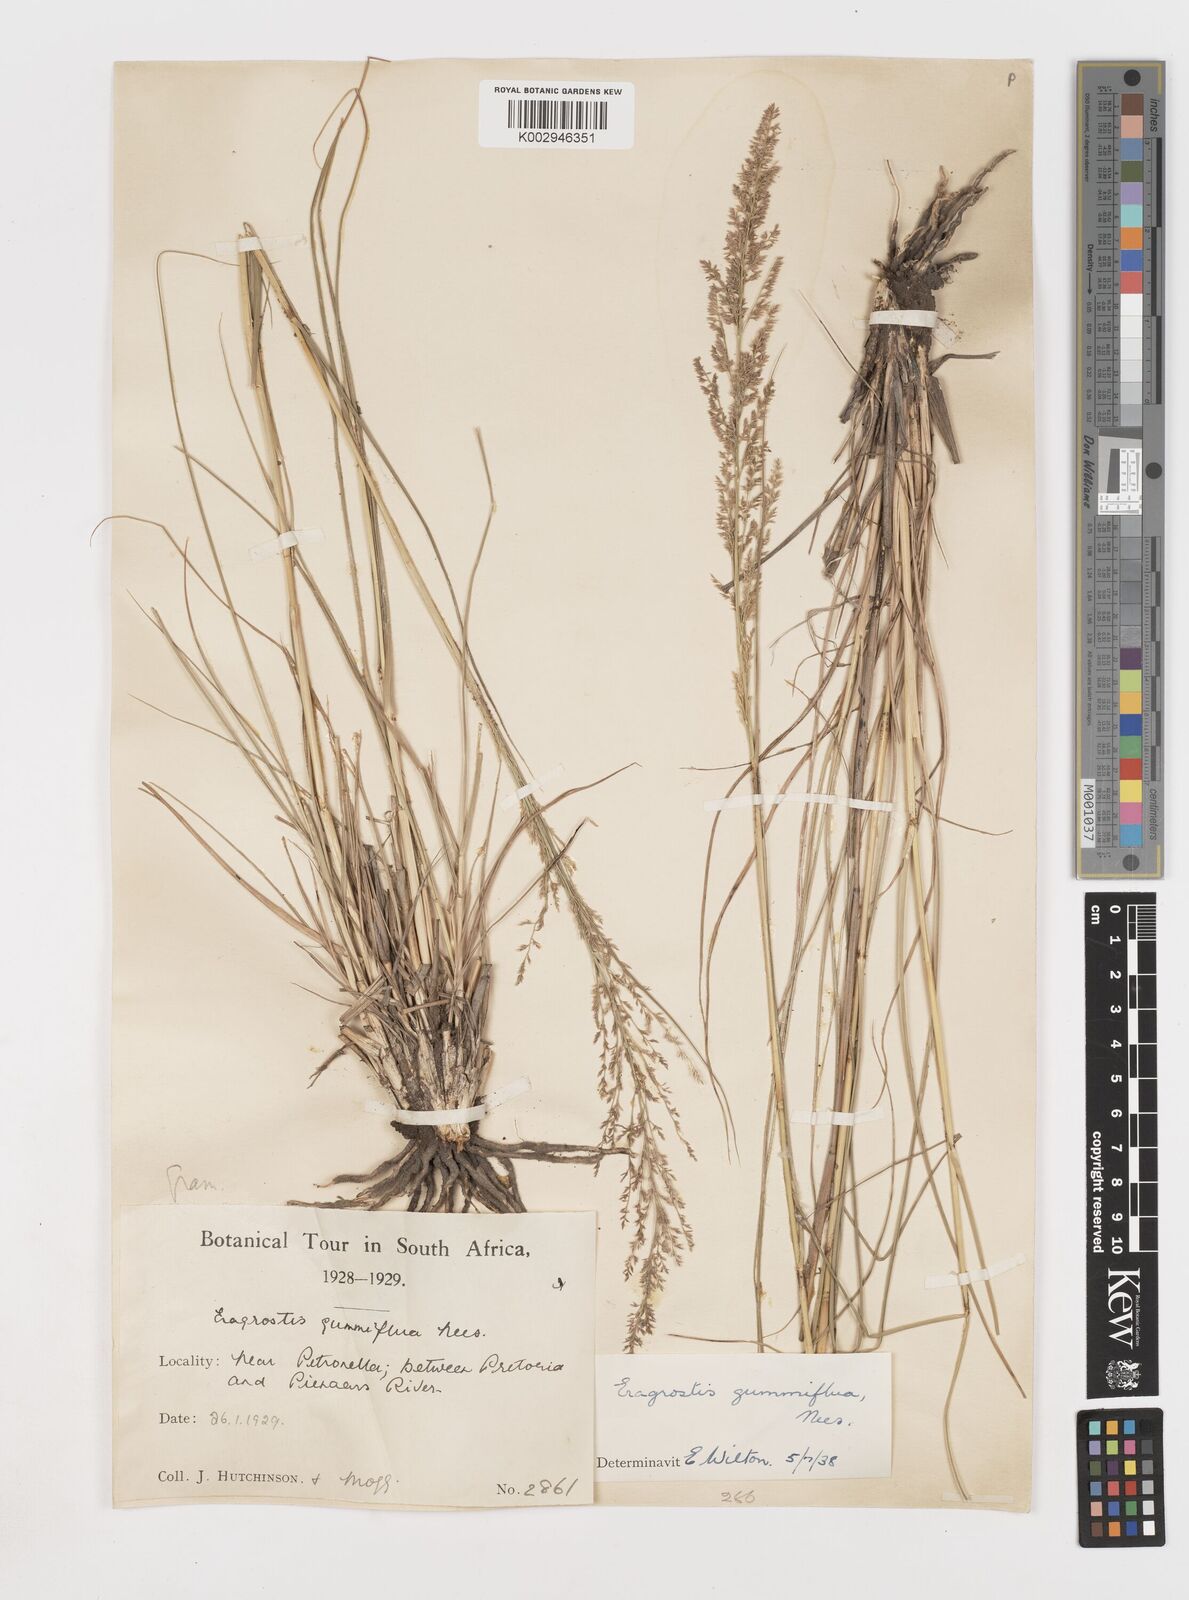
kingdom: Plantae
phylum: Tracheophyta
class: Liliopsida
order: Poales
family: Poaceae
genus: Eragrostis
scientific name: Eragrostis gummiflua
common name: Gum grass
